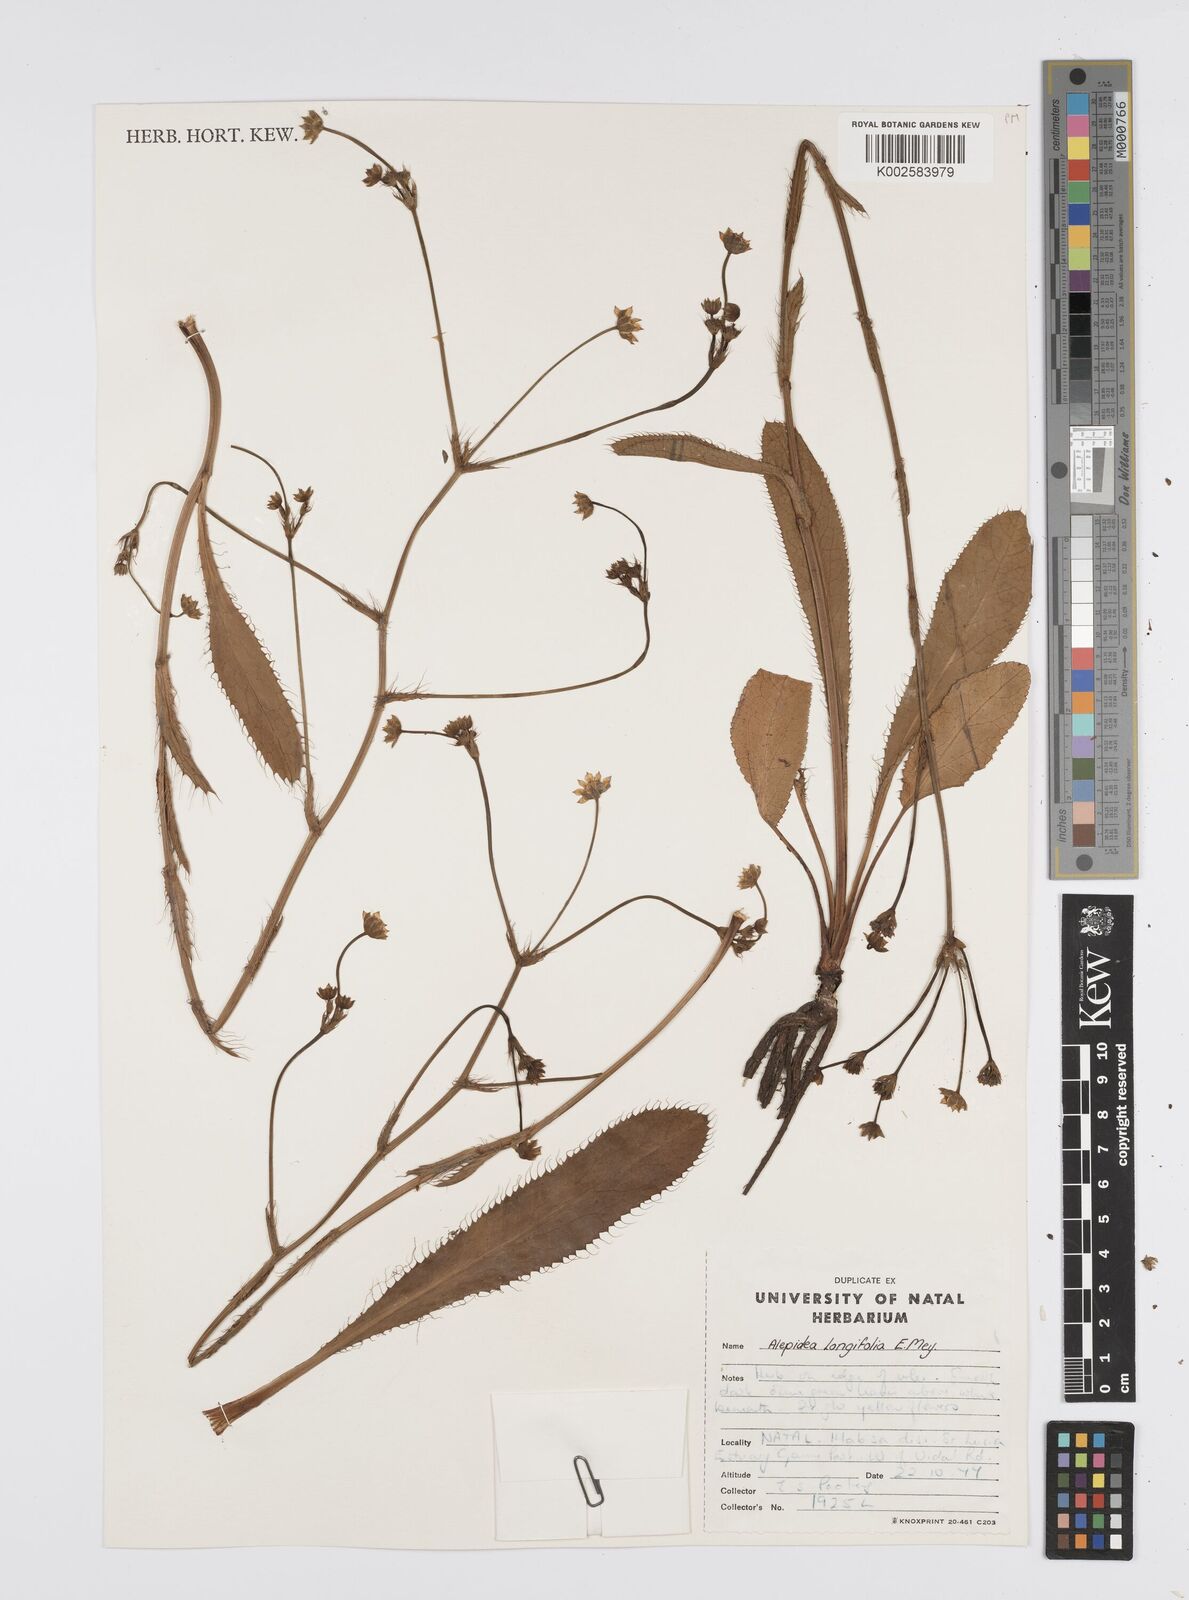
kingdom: Plantae
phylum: Tracheophyta
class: Magnoliopsida
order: Apiales
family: Apiaceae
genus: Alepidea
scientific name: Alepidea
